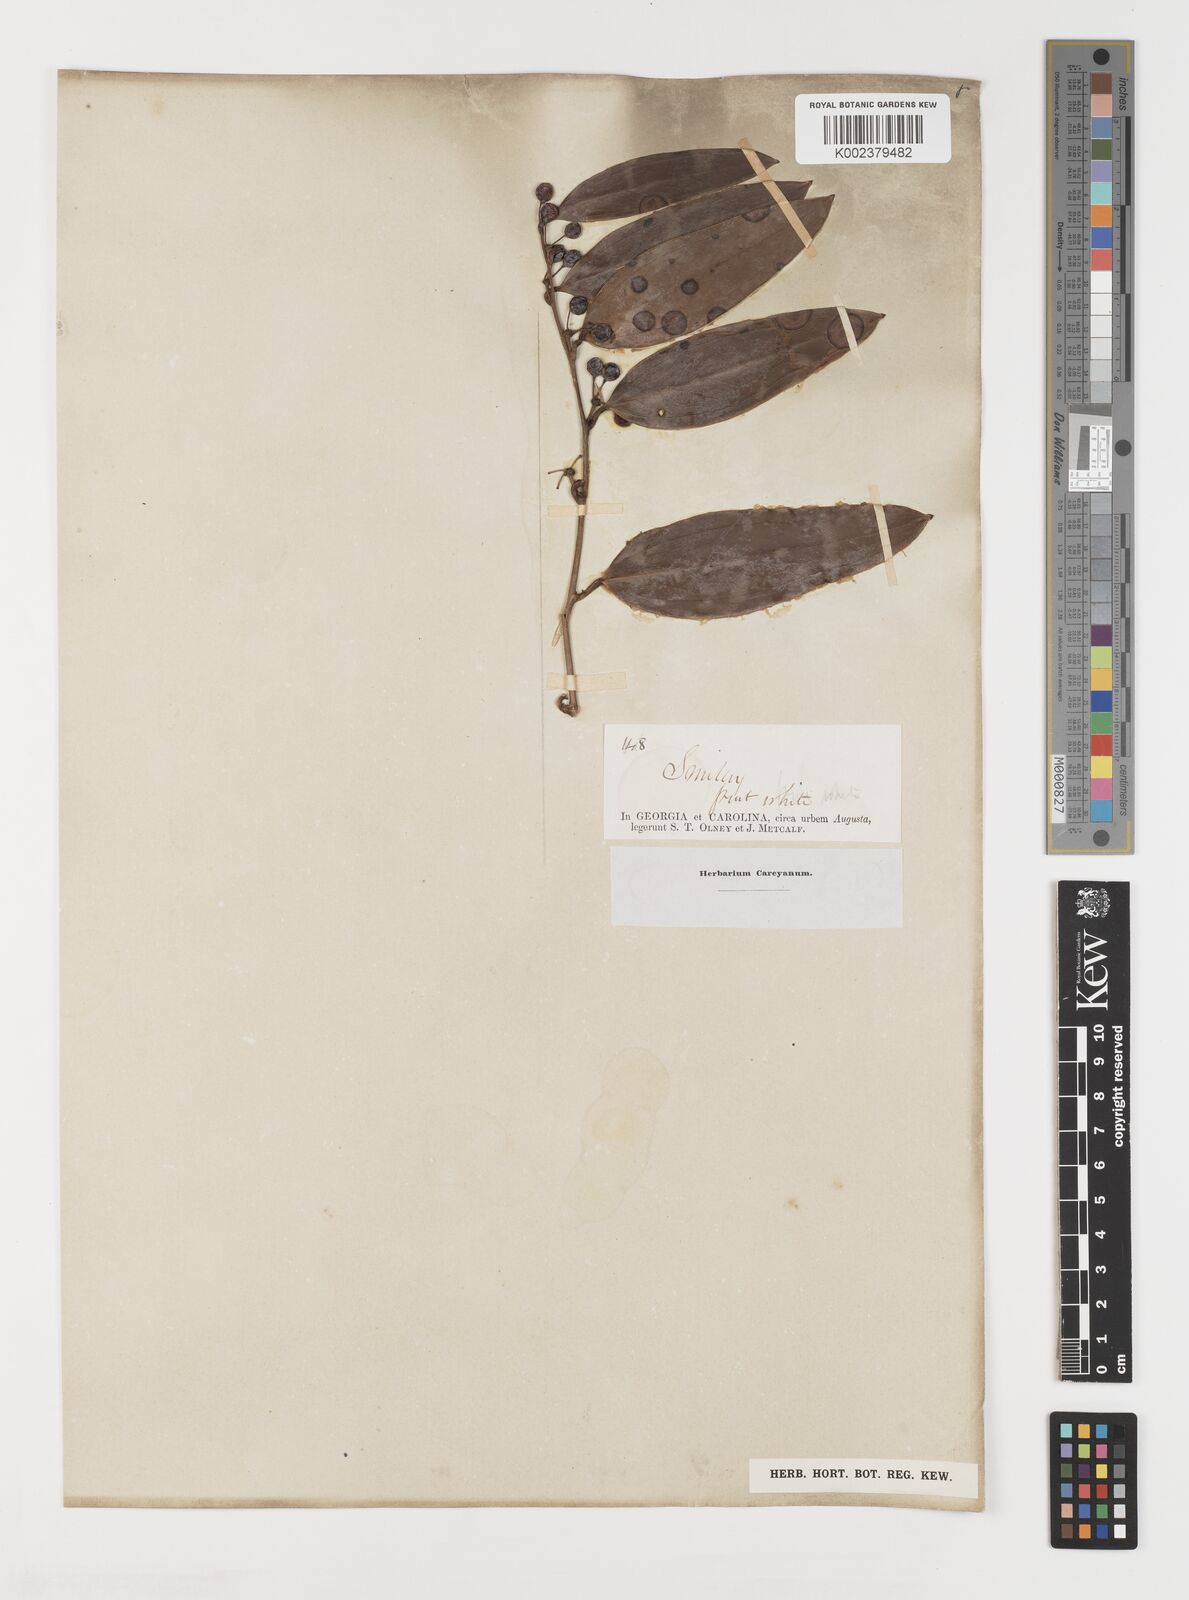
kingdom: Plantae
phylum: Tracheophyta
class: Liliopsida
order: Liliales
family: Smilacaceae
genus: Smilax
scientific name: Smilax
